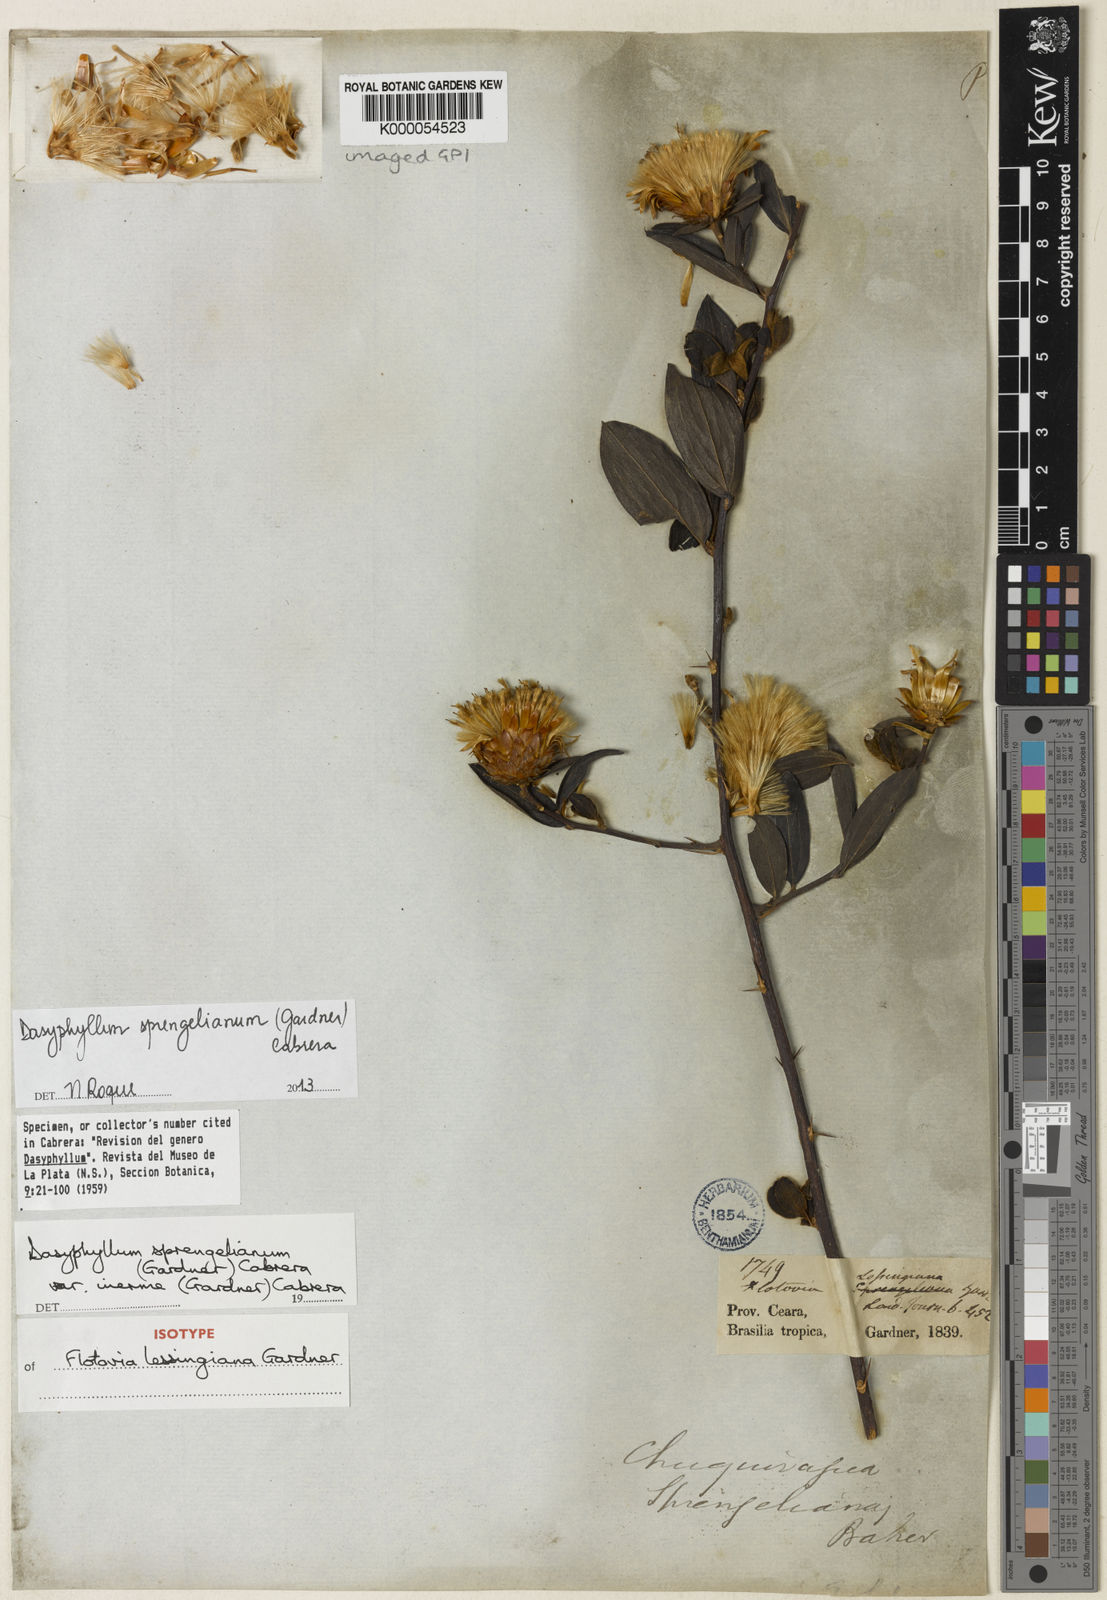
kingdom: Plantae
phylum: Tracheophyta
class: Magnoliopsida
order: Asterales
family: Asteraceae
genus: Dasyphyllum
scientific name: Dasyphyllum sprengelianum
